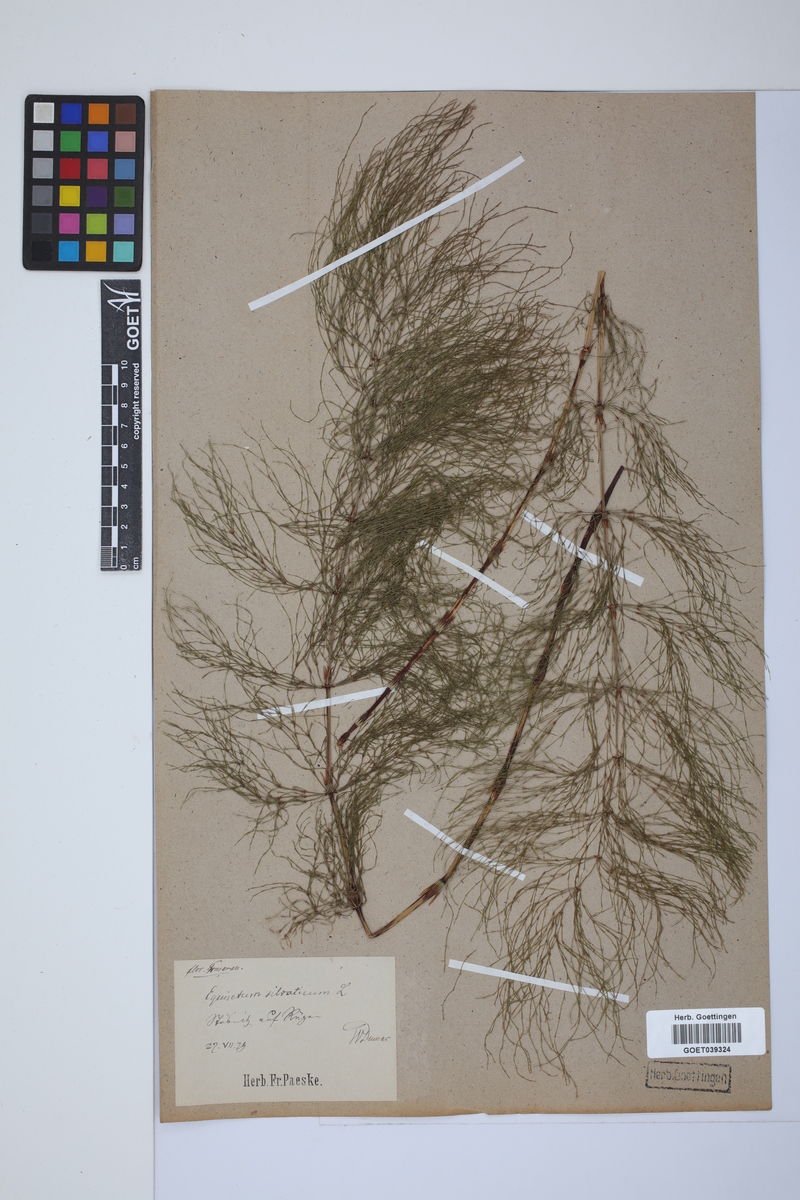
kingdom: Plantae
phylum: Tracheophyta
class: Polypodiopsida
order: Equisetales
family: Equisetaceae
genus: Equisetum
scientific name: Equisetum sylvaticum
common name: Wood horsetail
